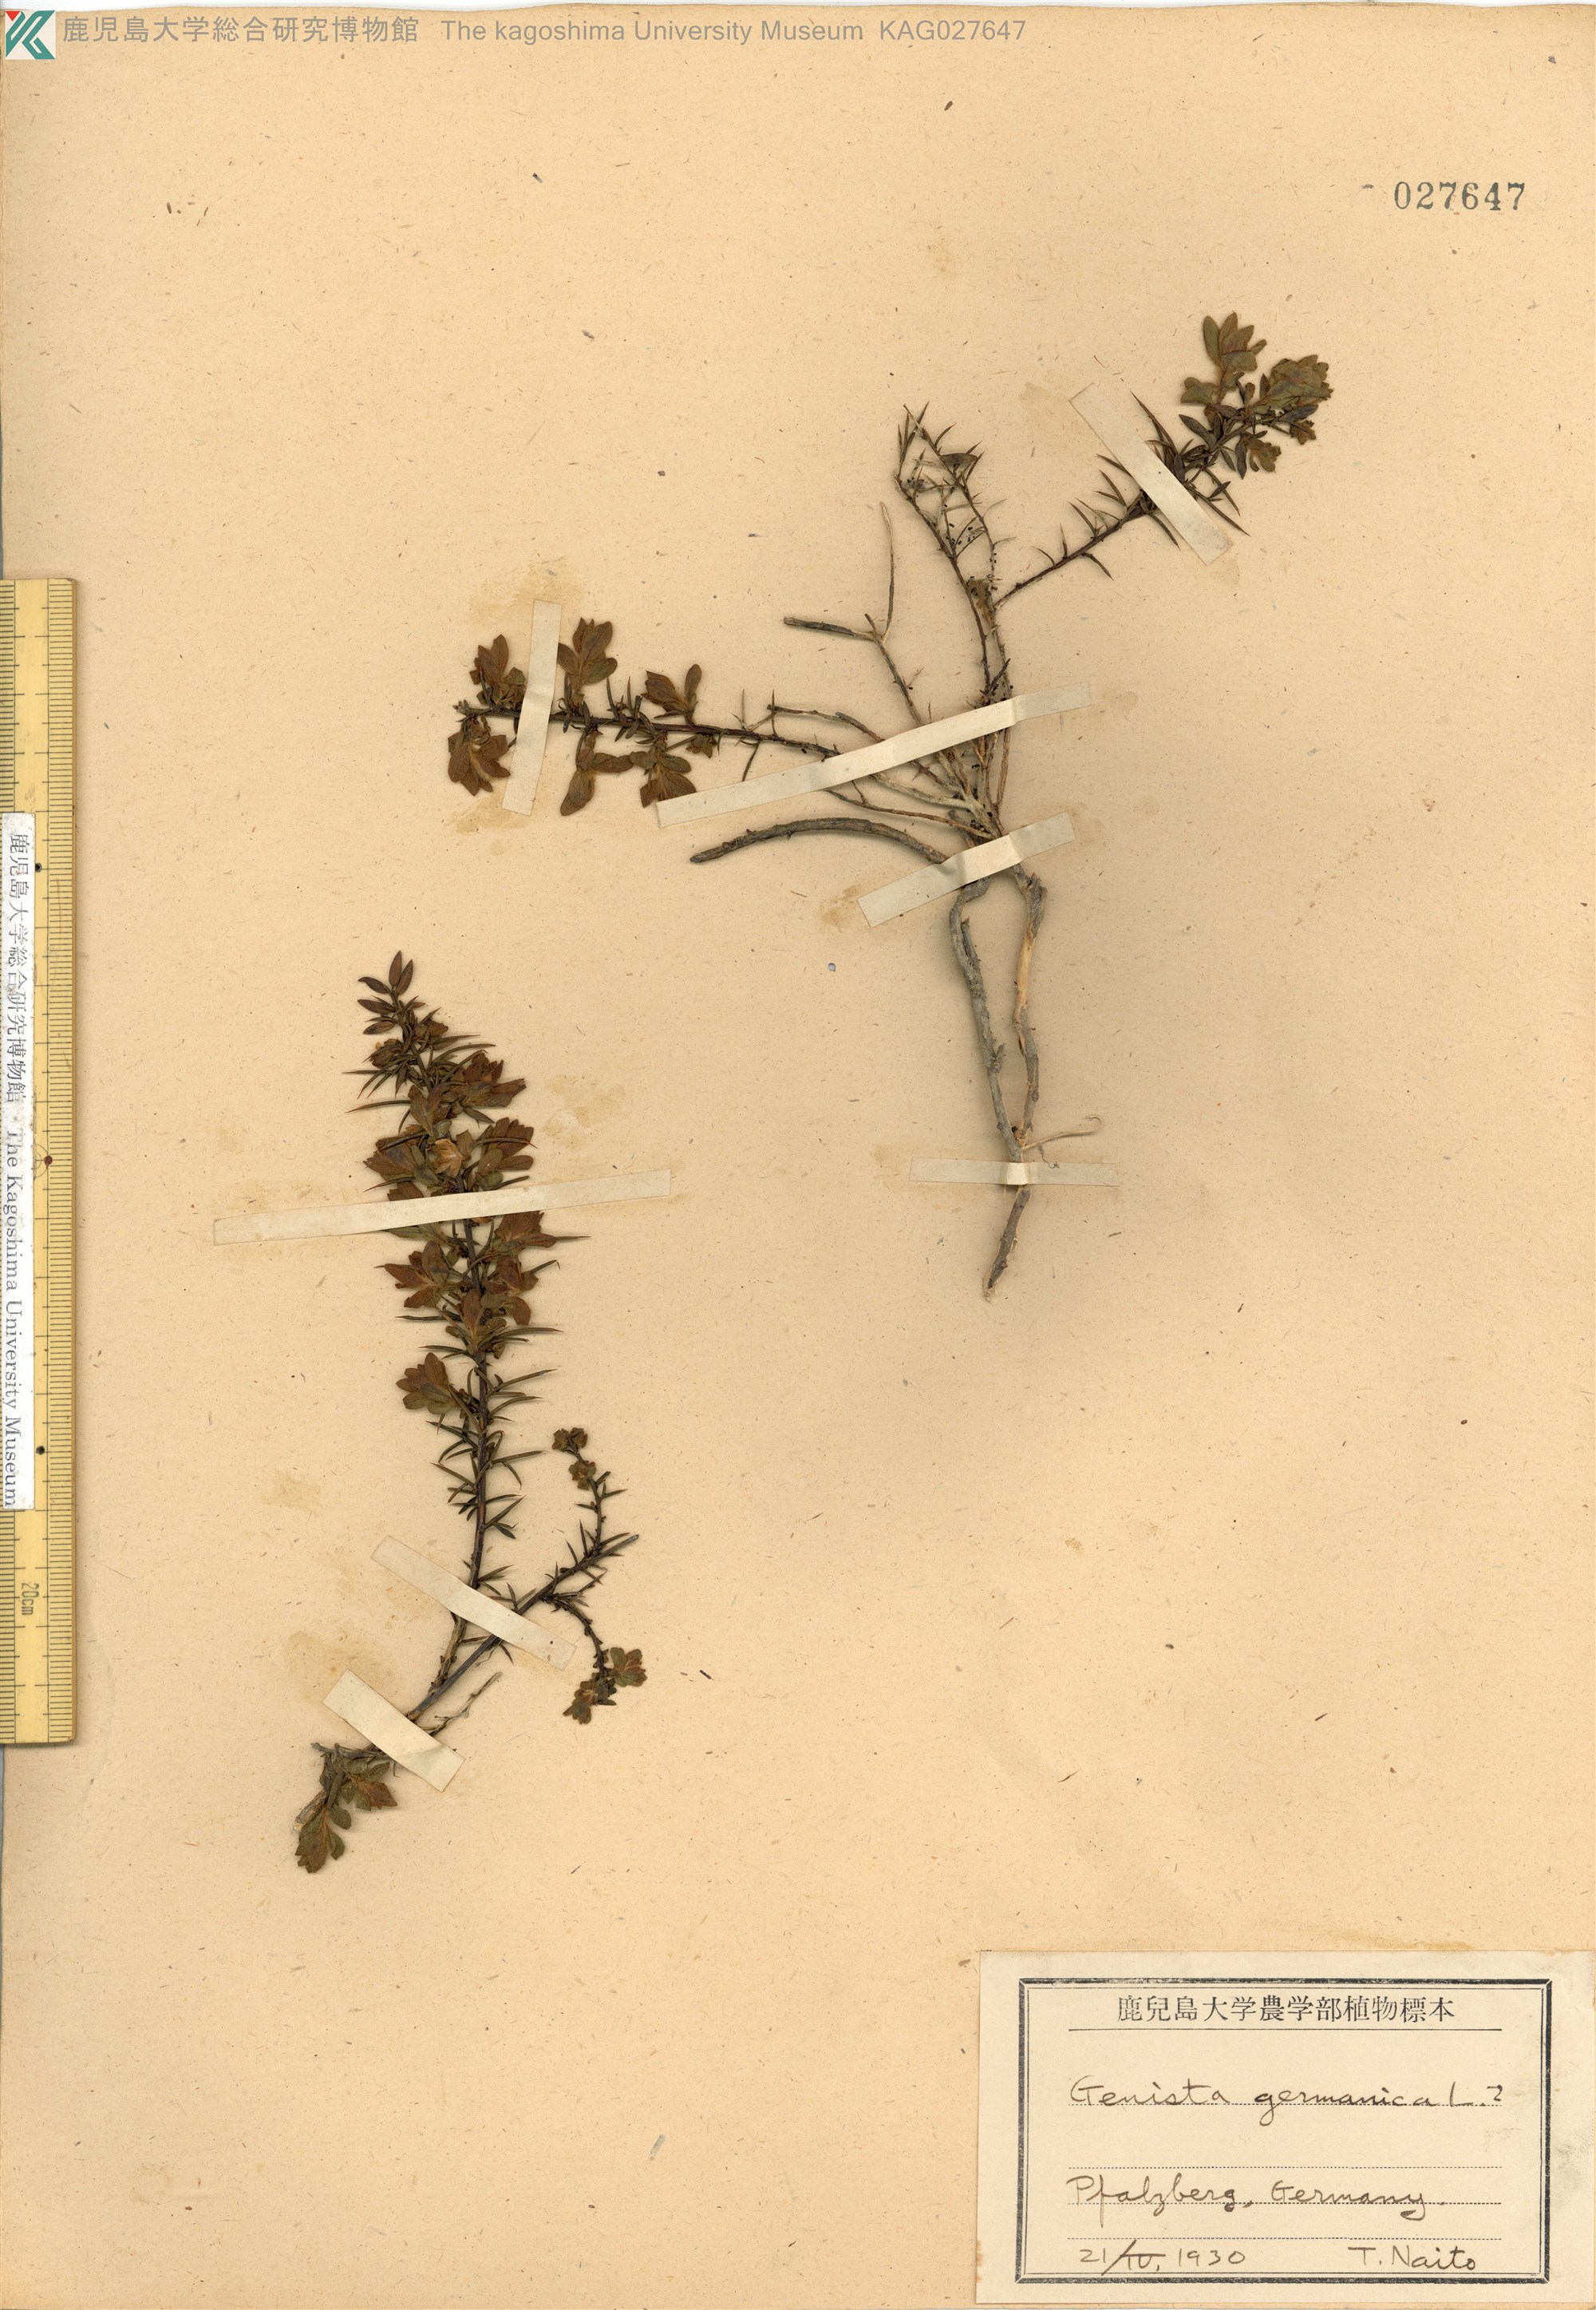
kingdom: Plantae
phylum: Tracheophyta
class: Magnoliopsida
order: Fabales
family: Fabaceae
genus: Genista
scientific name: Genista germanica
